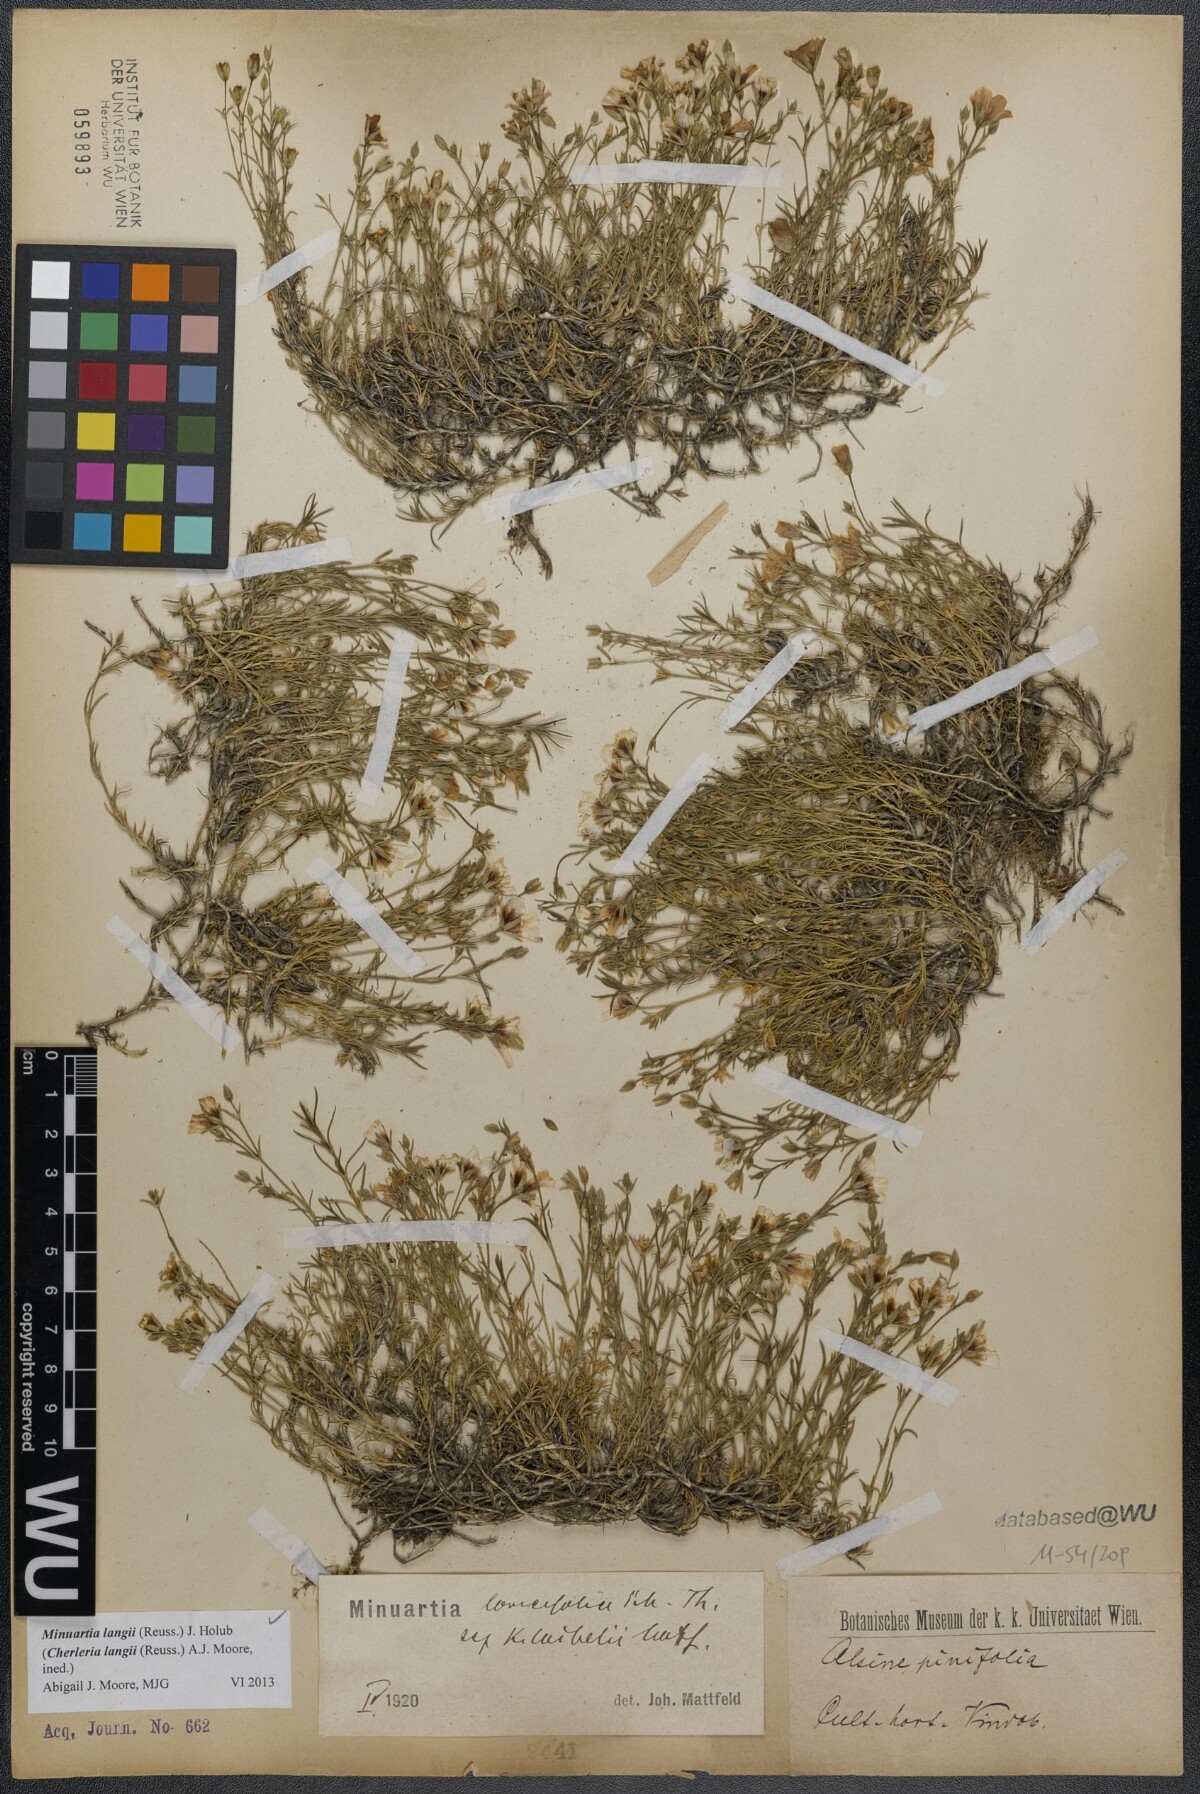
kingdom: Plantae
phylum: Tracheophyta
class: Magnoliopsida
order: Caryophyllales
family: Caryophyllaceae
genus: Cherleria
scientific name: Cherleria langii
